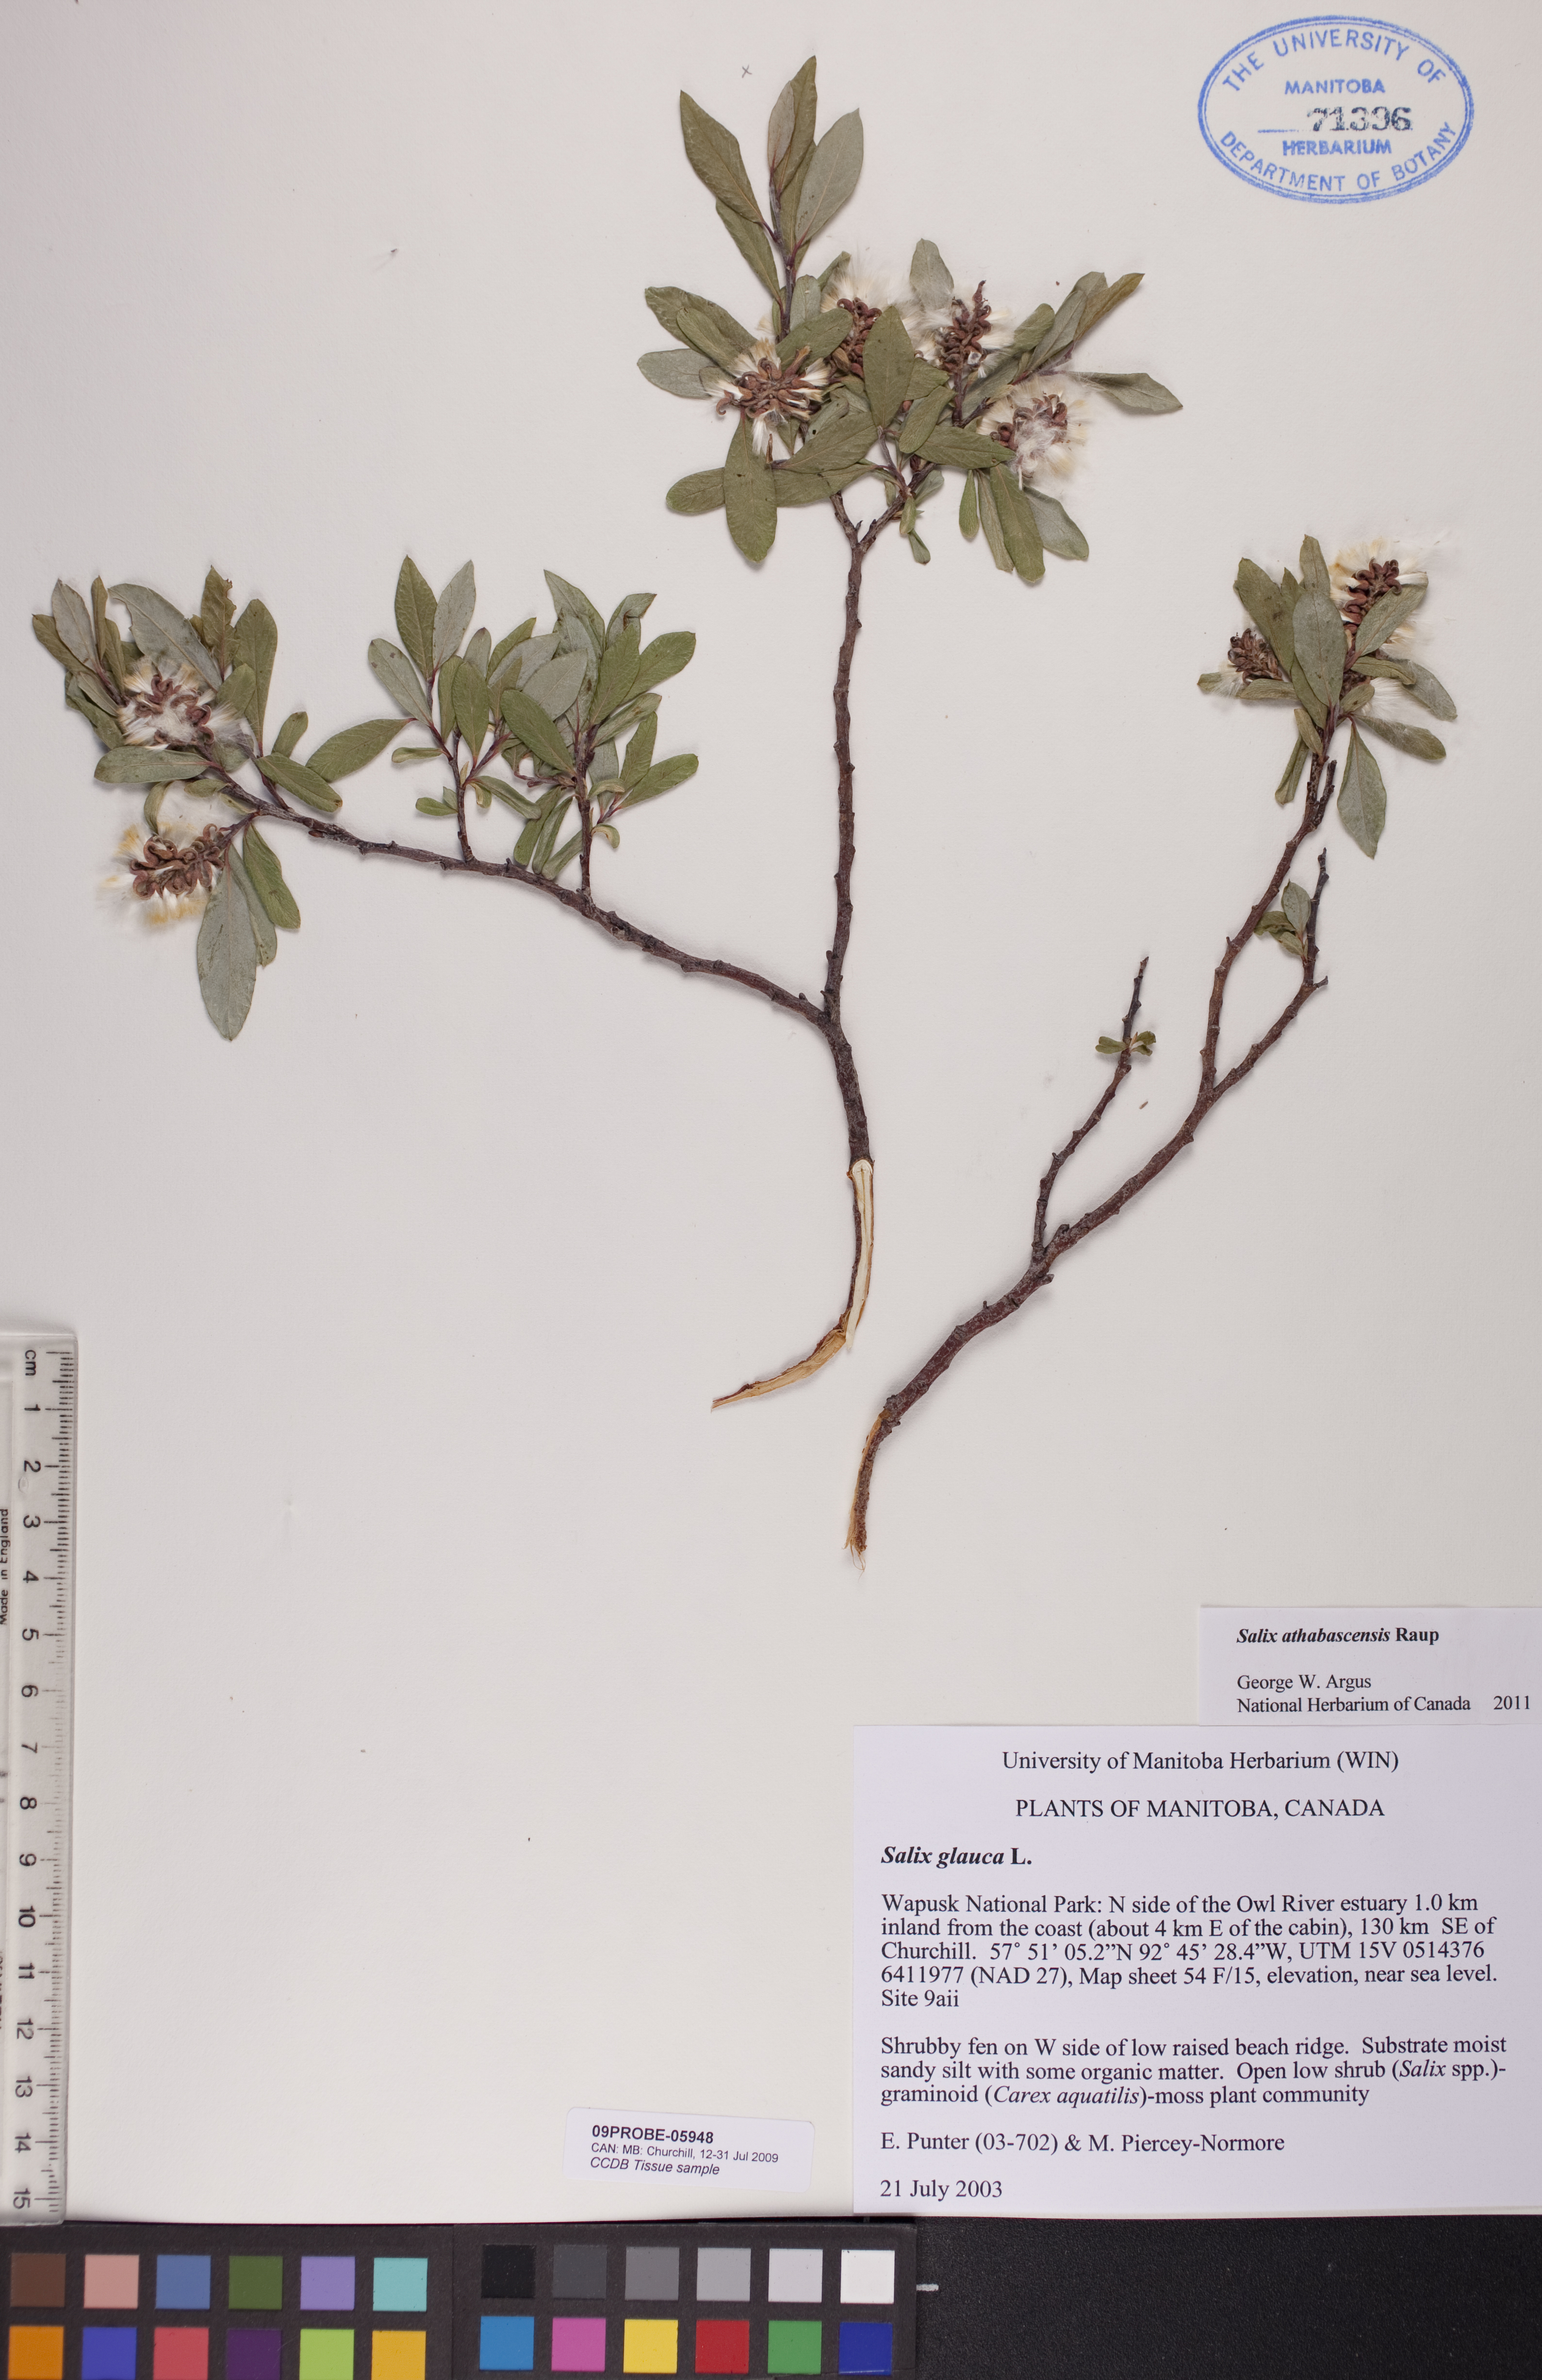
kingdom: Plantae
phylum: Tracheophyta
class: Magnoliopsida
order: Malpighiales
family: Salicaceae
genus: Salix
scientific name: Salix athabascensis
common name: Athabasca willow
